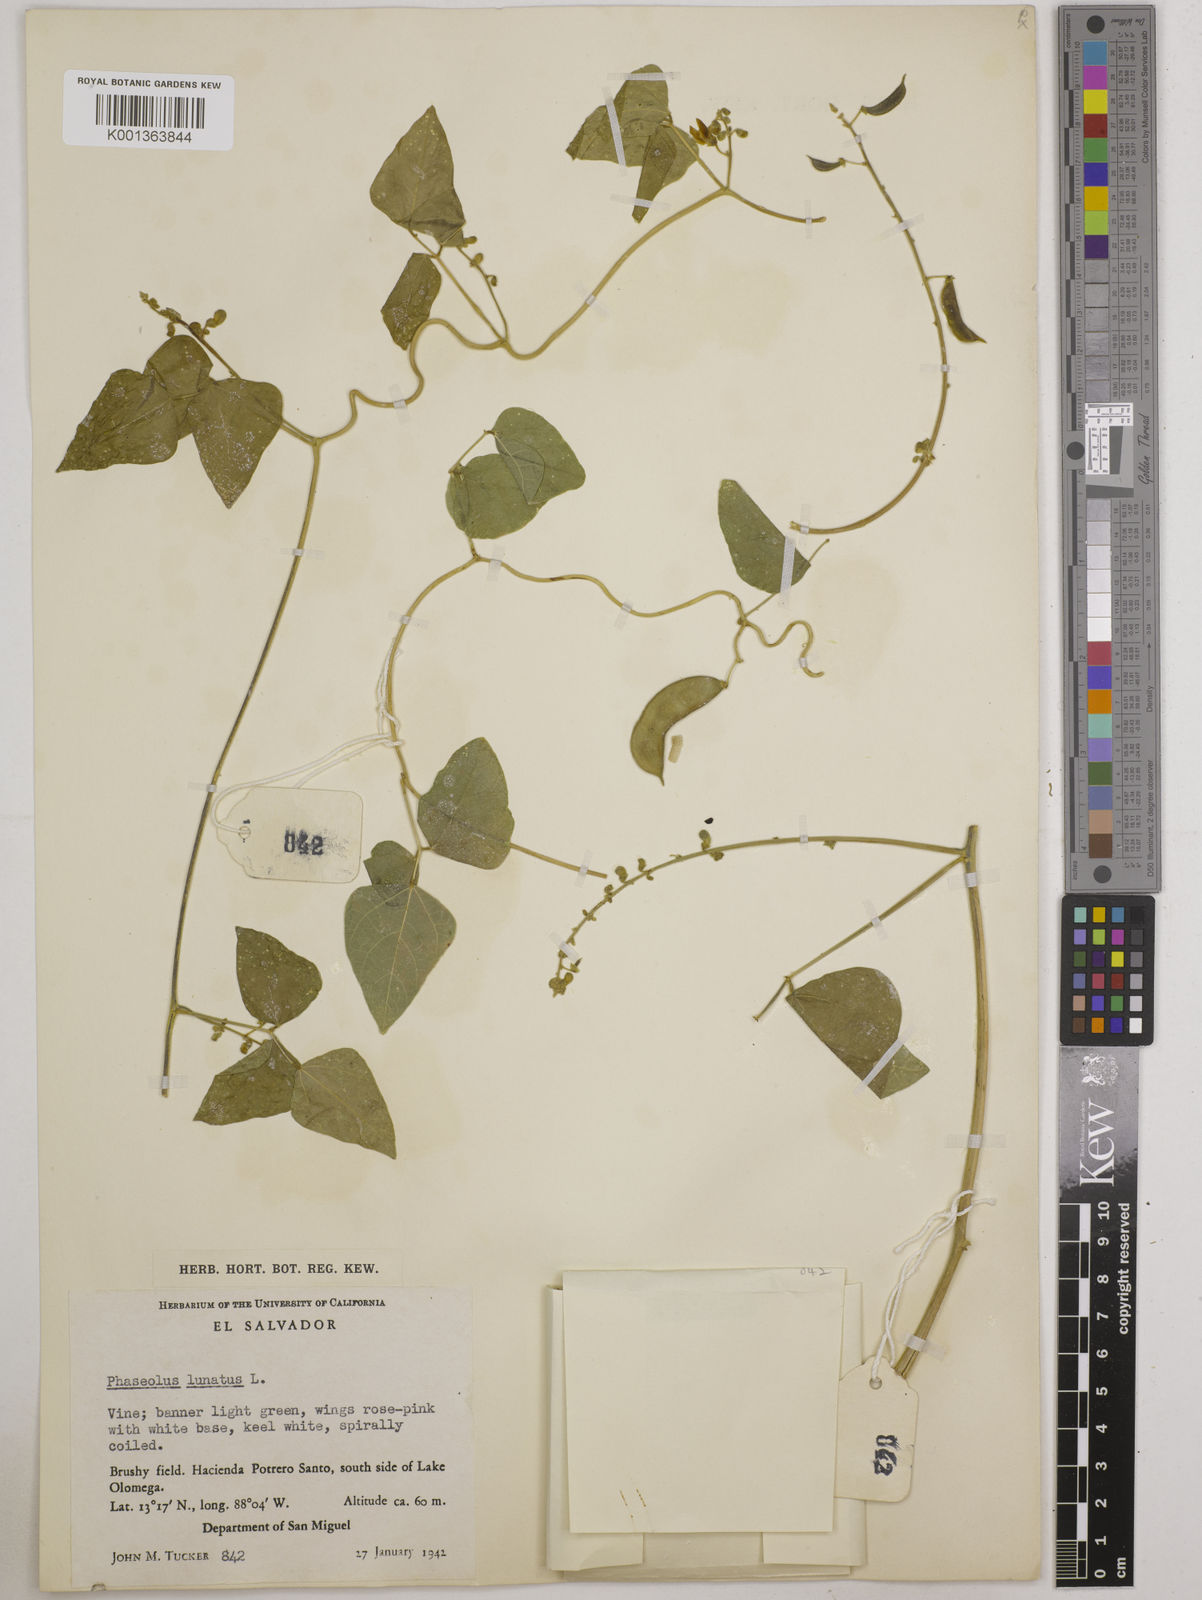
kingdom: Plantae
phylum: Tracheophyta
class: Magnoliopsida
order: Fabales
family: Fabaceae
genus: Phaseolus
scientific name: Phaseolus lunatus
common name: Sieva bean
